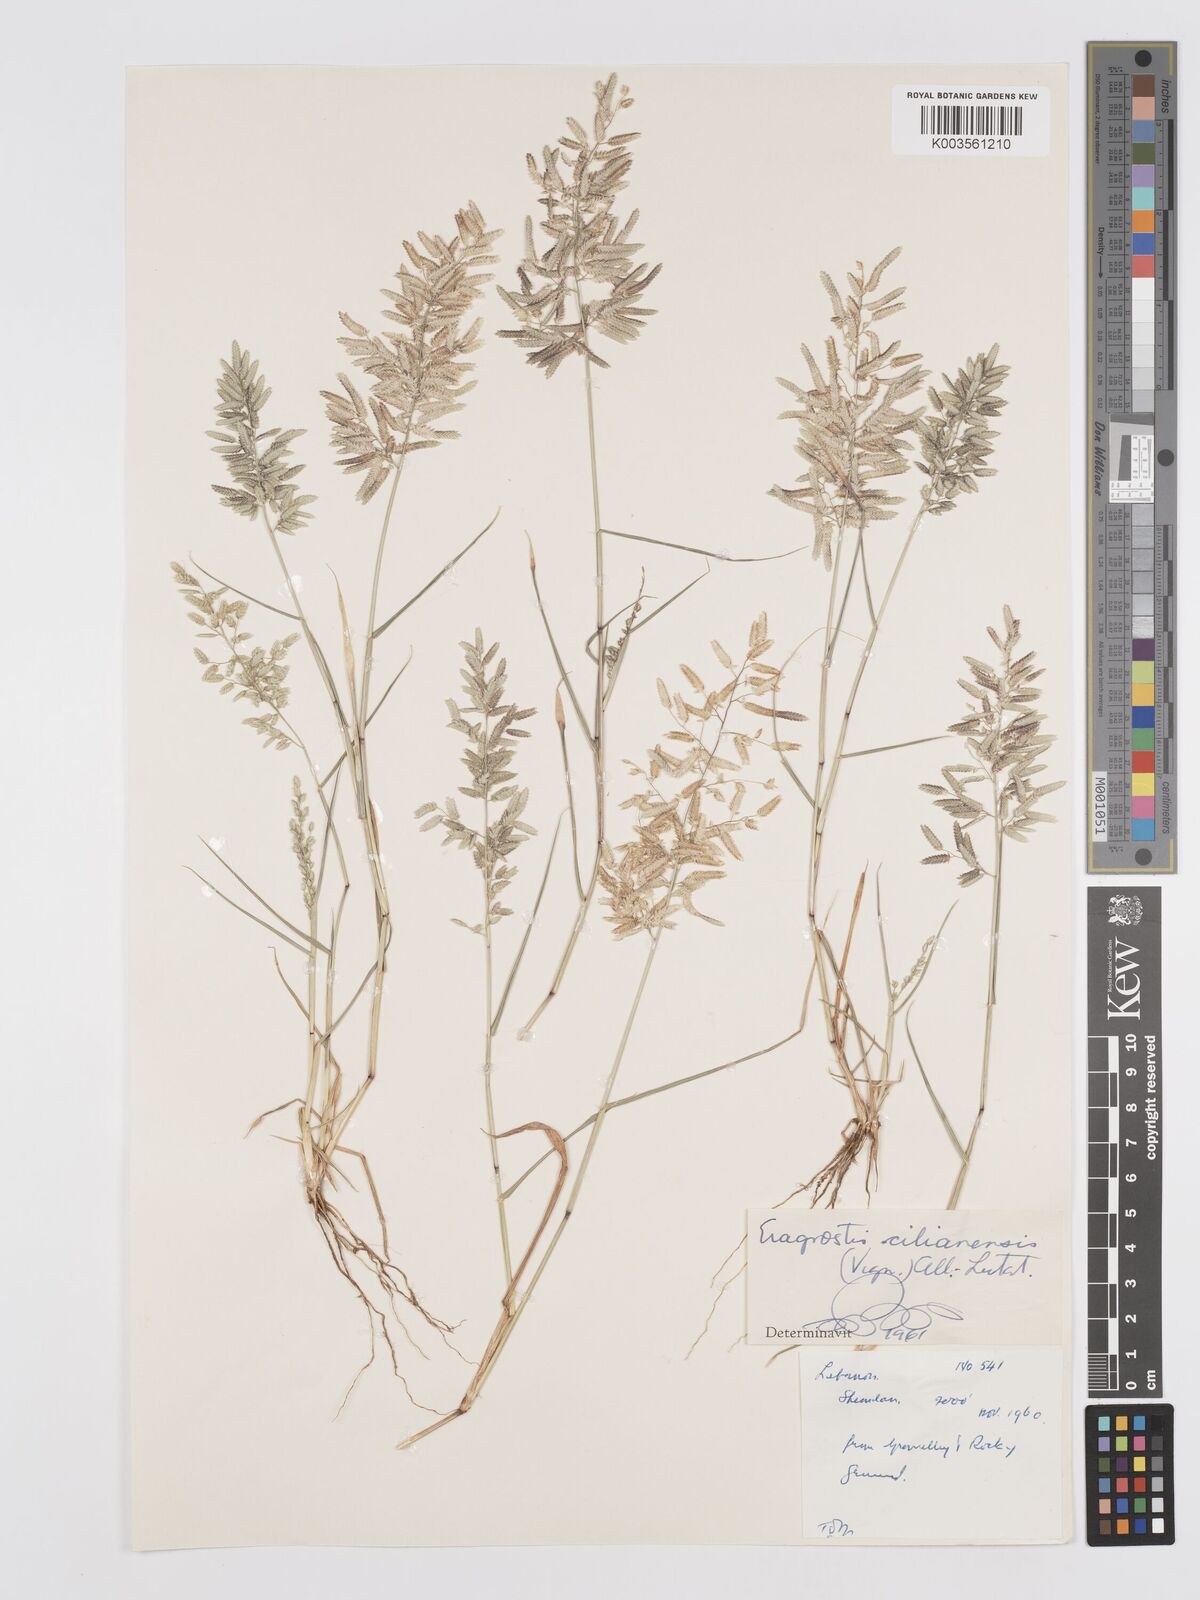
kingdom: Plantae
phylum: Tracheophyta
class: Liliopsida
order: Poales
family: Poaceae
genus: Eragrostis
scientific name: Eragrostis cilianensis
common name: Stinkgrass
